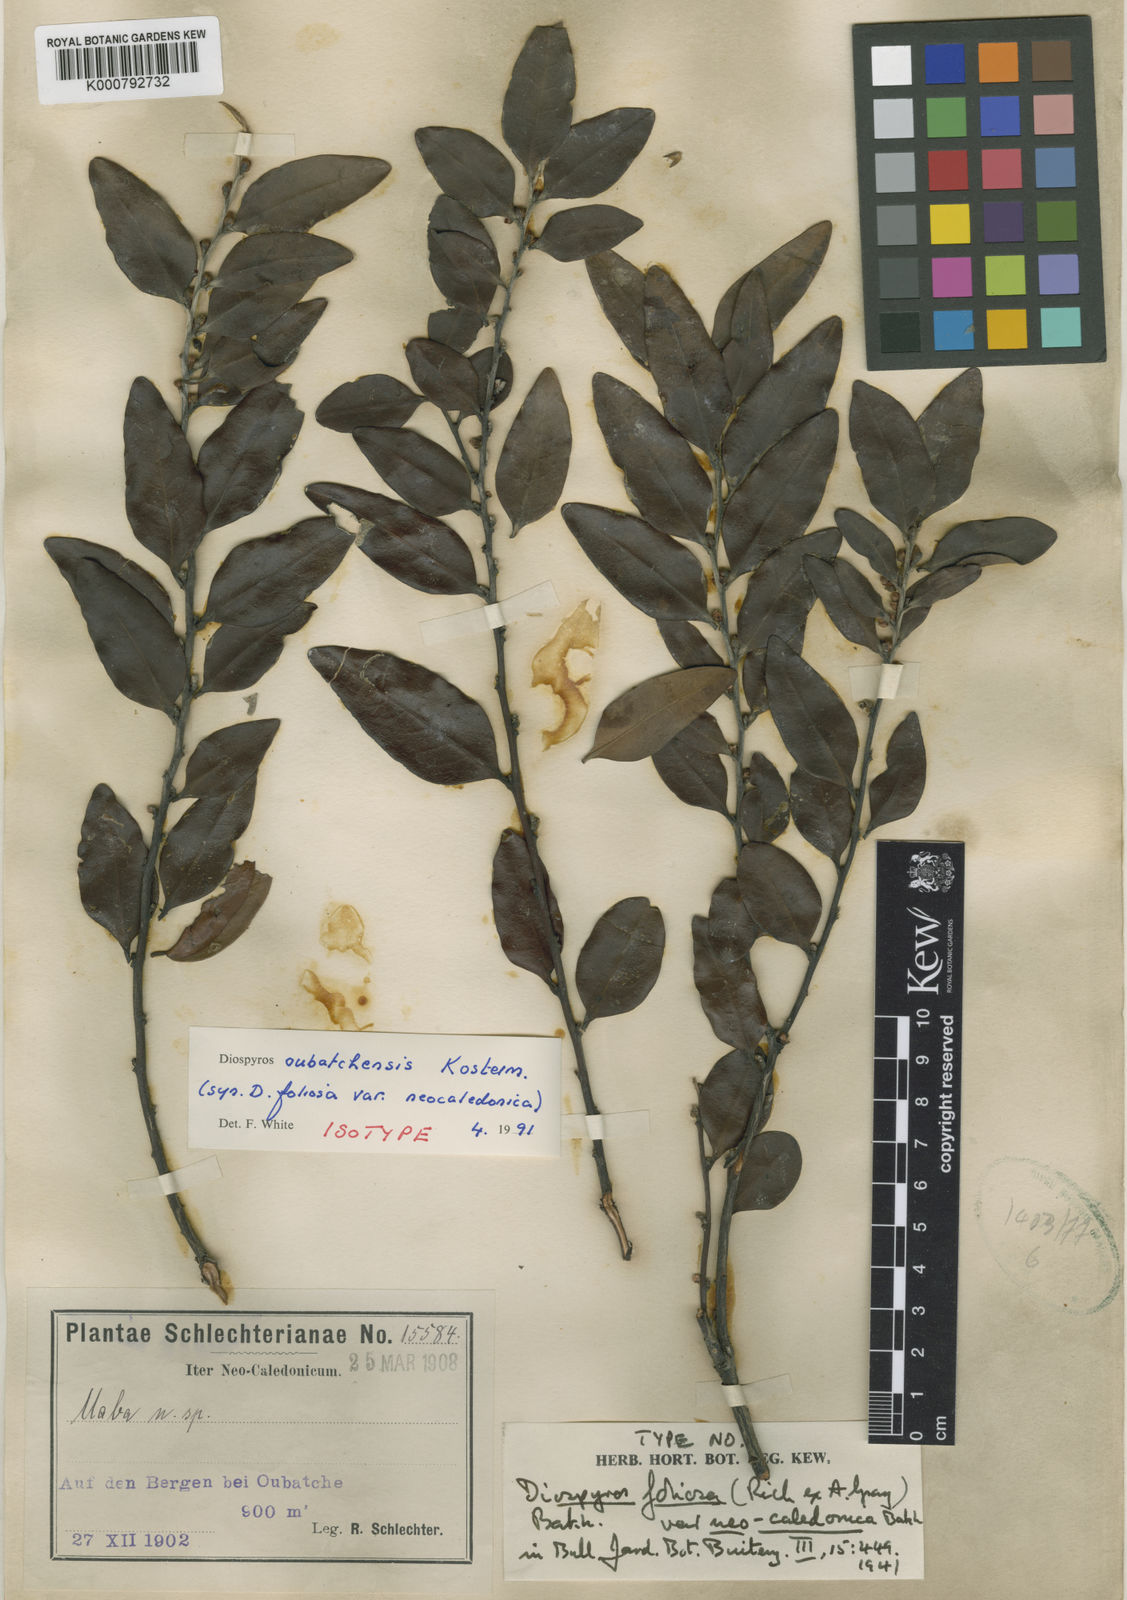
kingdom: Plantae
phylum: Tracheophyta
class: Magnoliopsida
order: Ericales
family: Ebenaceae
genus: Diospyros
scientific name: Diospyros oubatchensis
